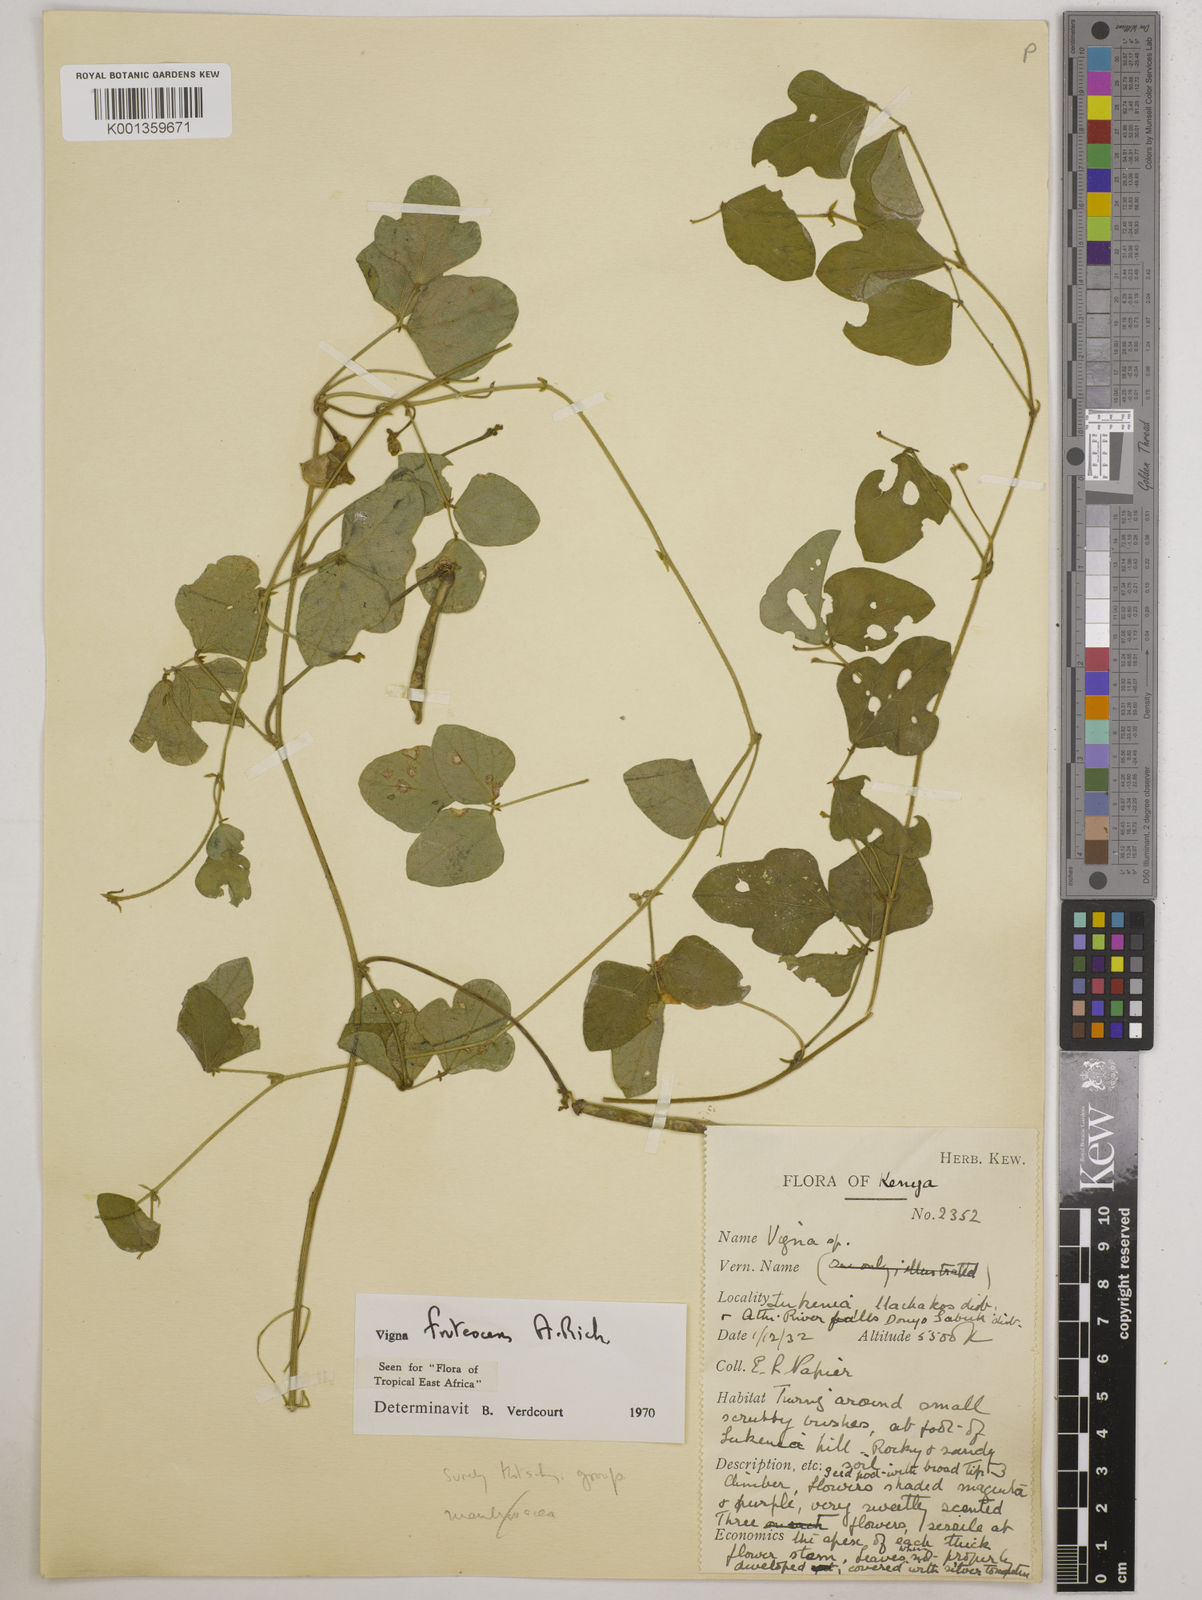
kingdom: Plantae
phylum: Tracheophyta
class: Magnoliopsida
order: Fabales
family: Fabaceae
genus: Vigna
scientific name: Vigna frutescens
